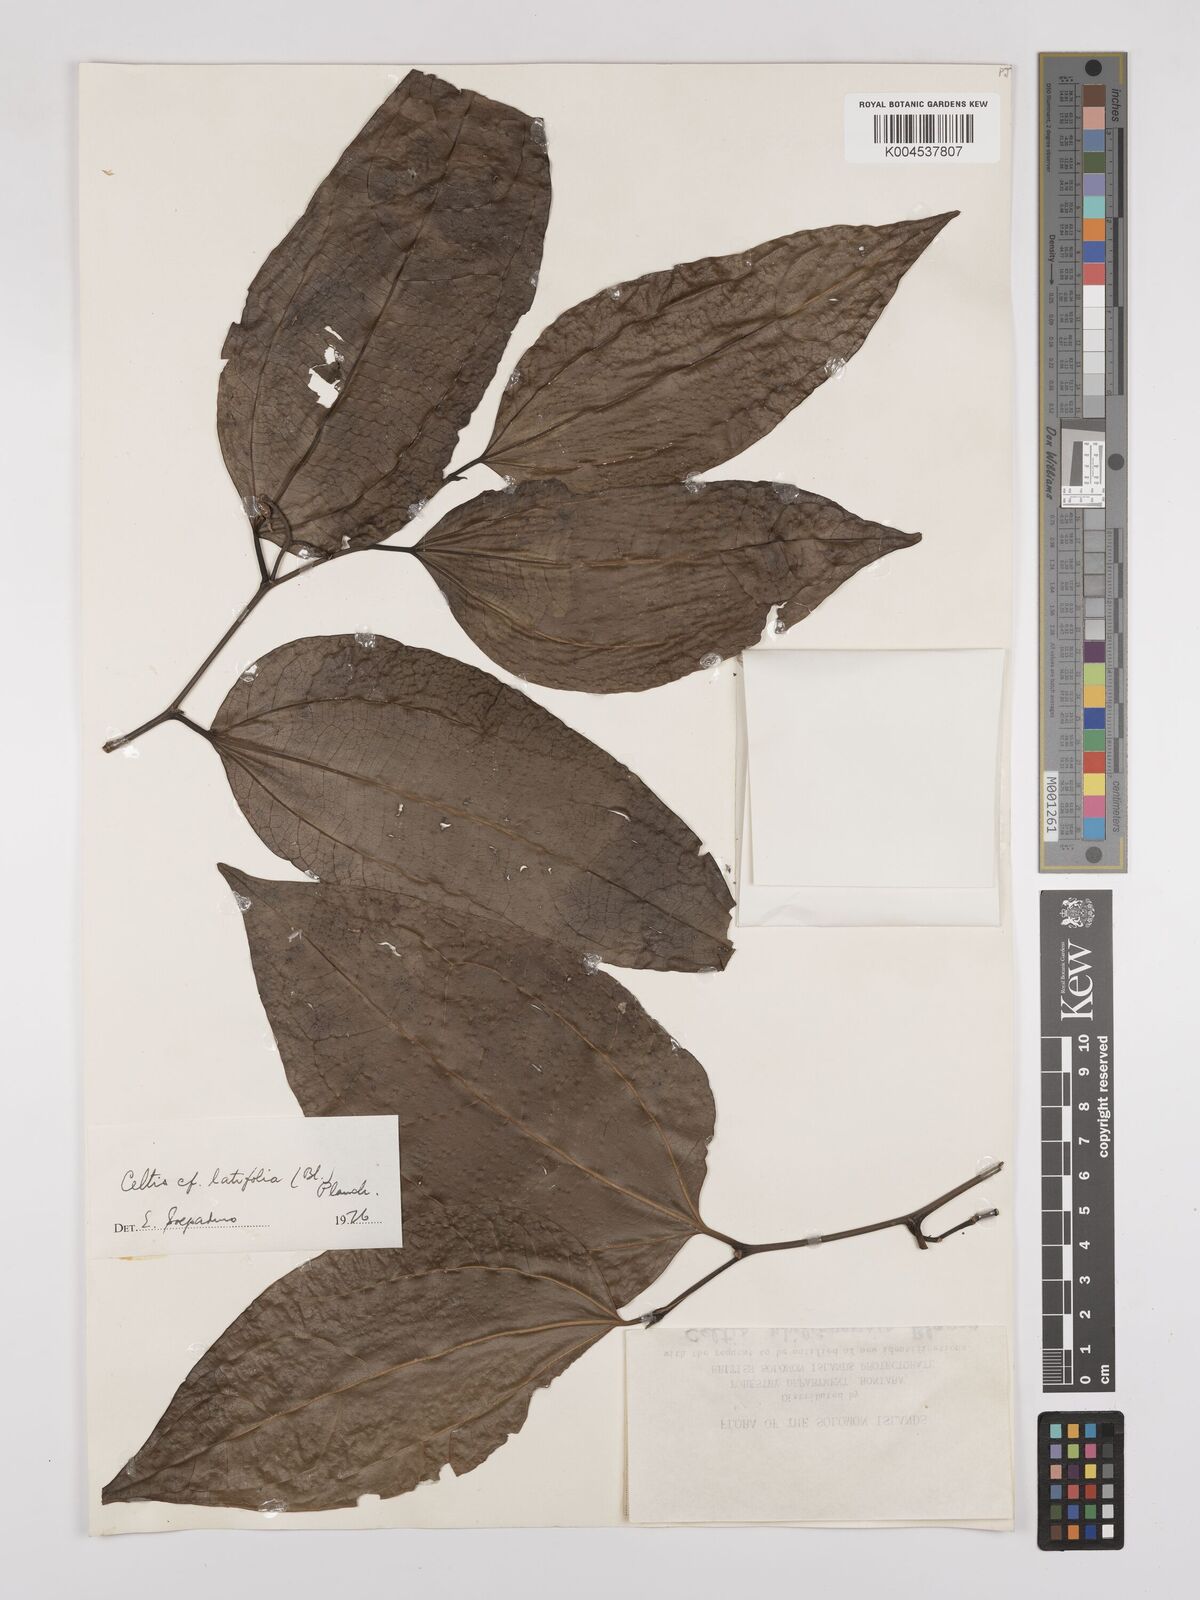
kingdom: Plantae
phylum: Tracheophyta
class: Magnoliopsida
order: Rosales
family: Cannabaceae
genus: Celtis
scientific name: Celtis latifolia
